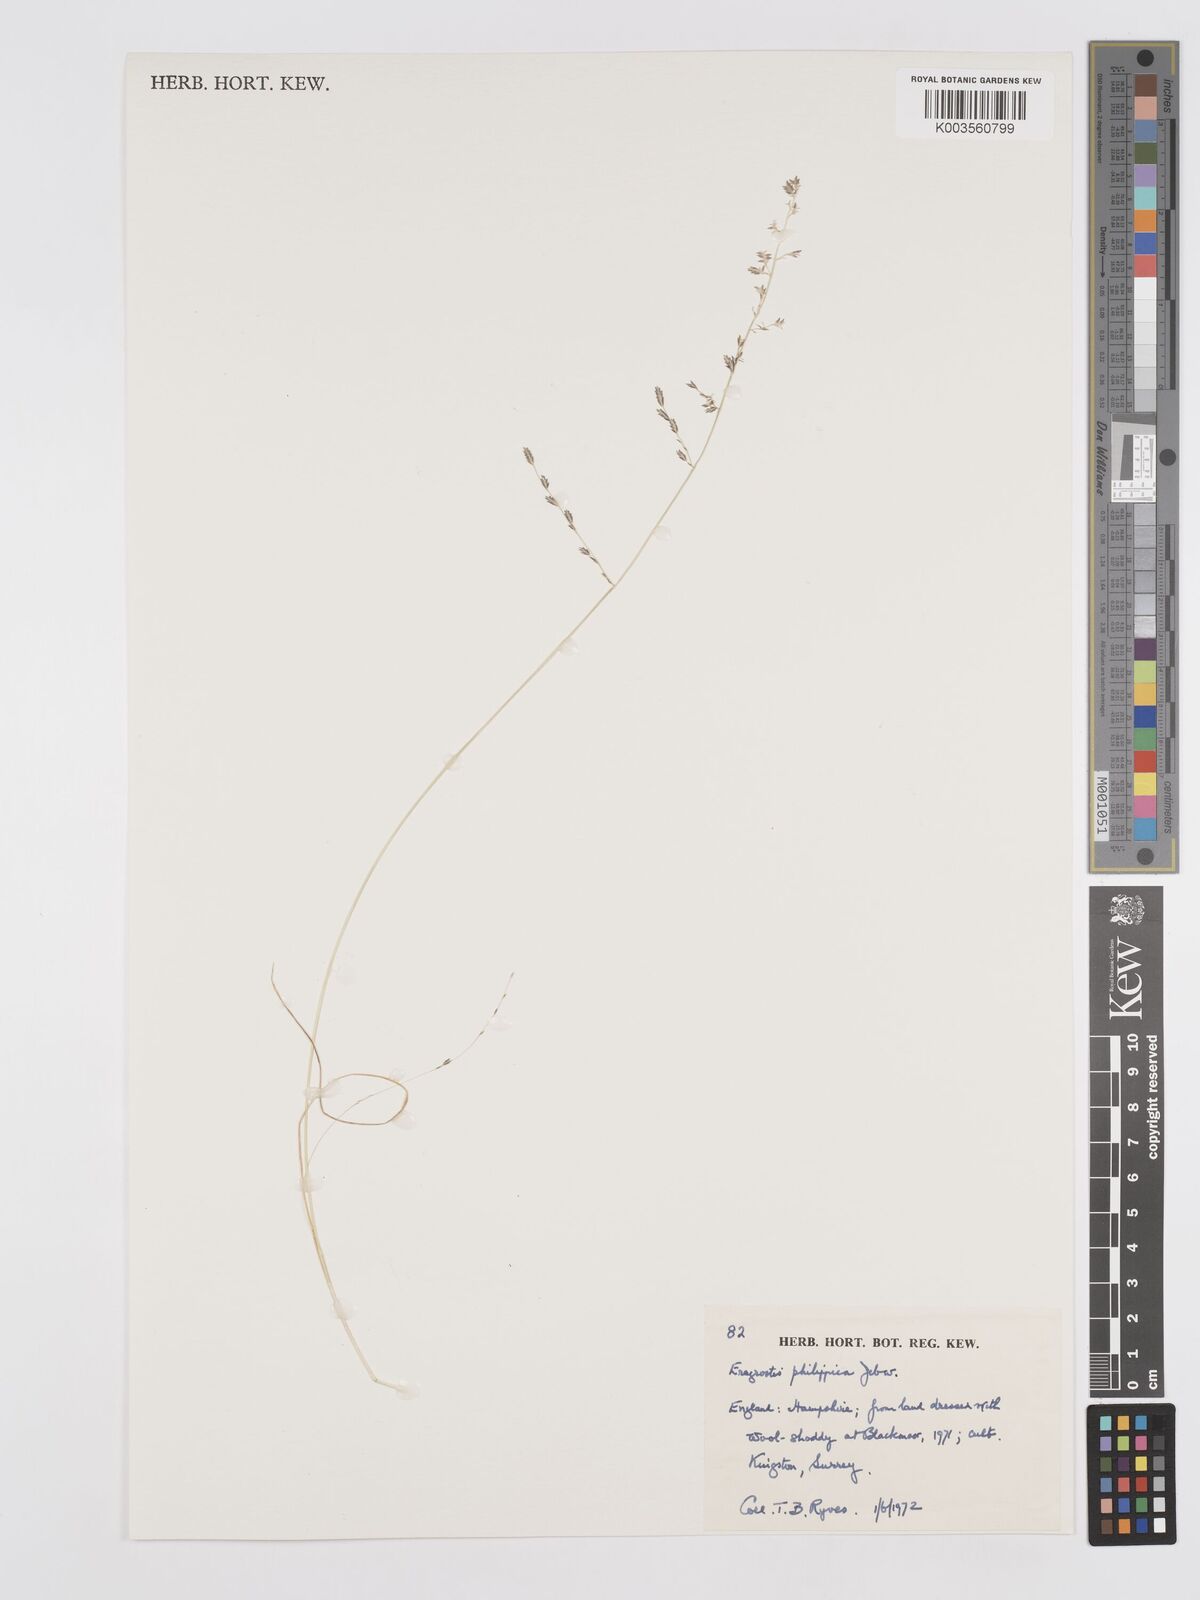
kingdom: Plantae
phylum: Tracheophyta
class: Liliopsida
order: Poales
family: Poaceae
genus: Eragrostis
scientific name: Eragrostis
